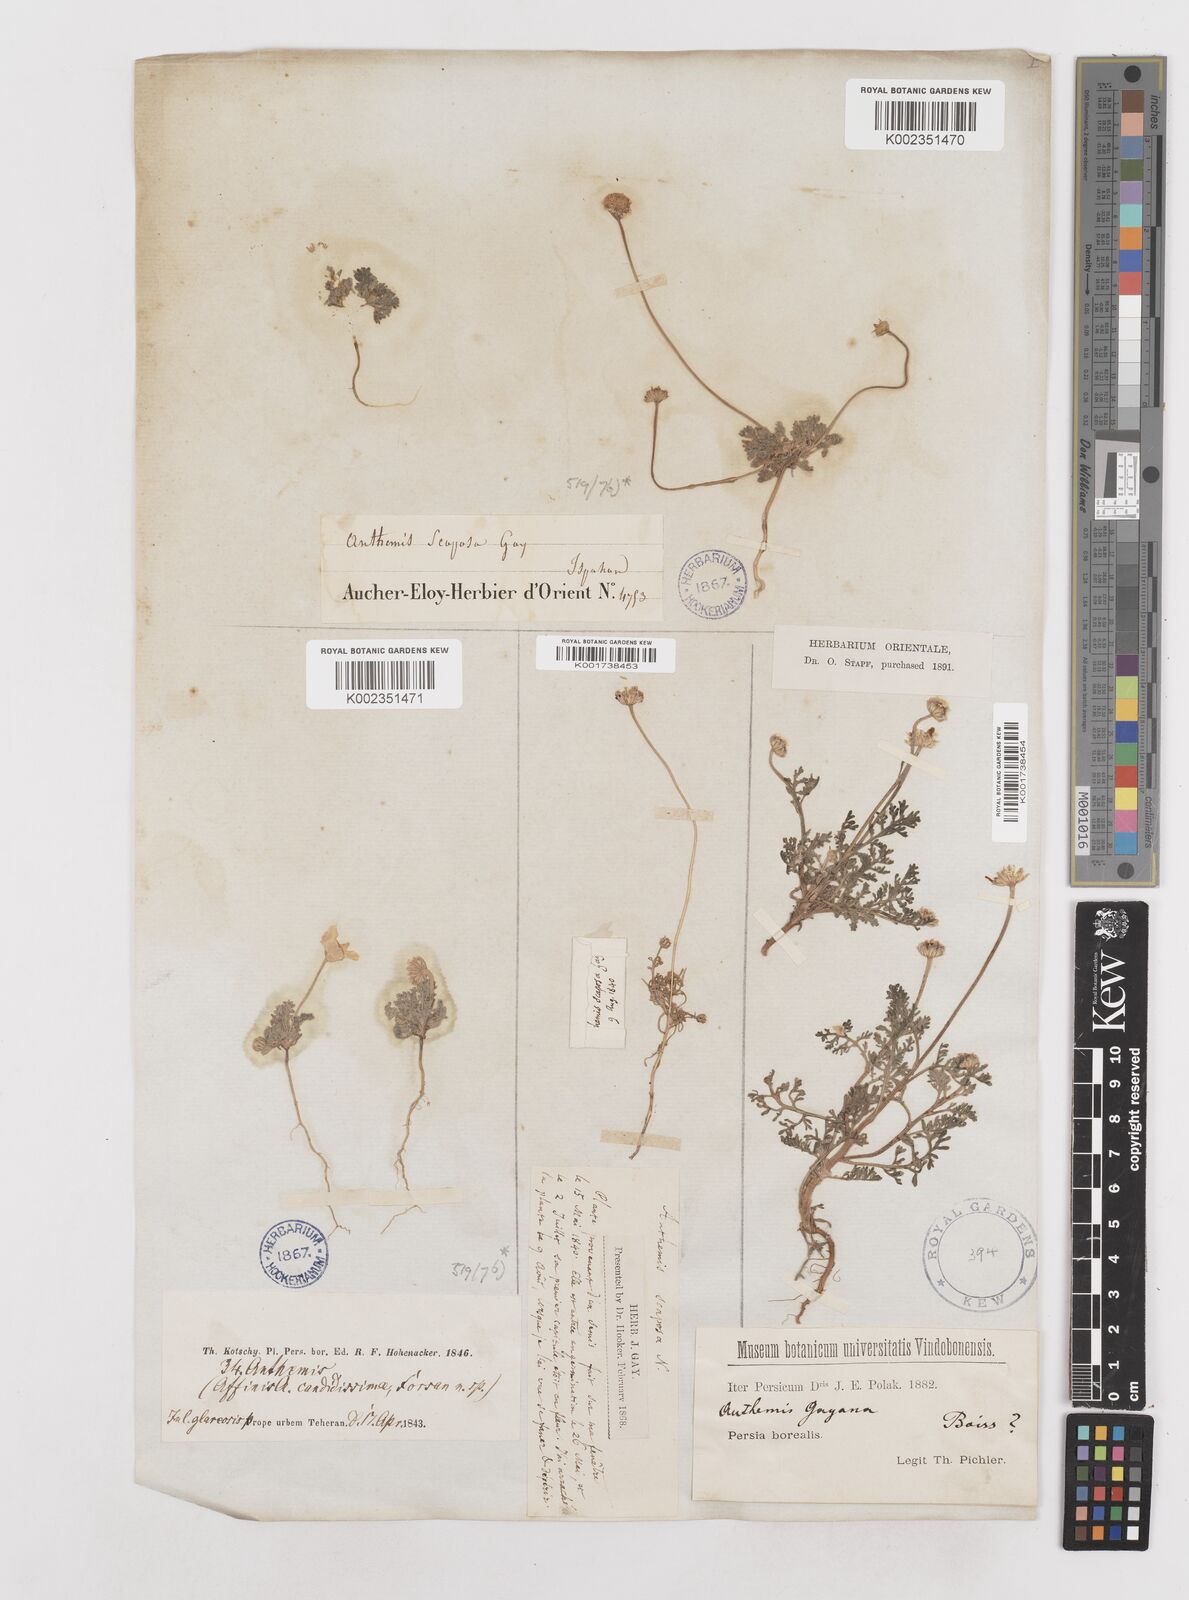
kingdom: Plantae
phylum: Tracheophyta
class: Magnoliopsida
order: Asterales
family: Asteraceae
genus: Anthemis
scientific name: Anthemis gayana
